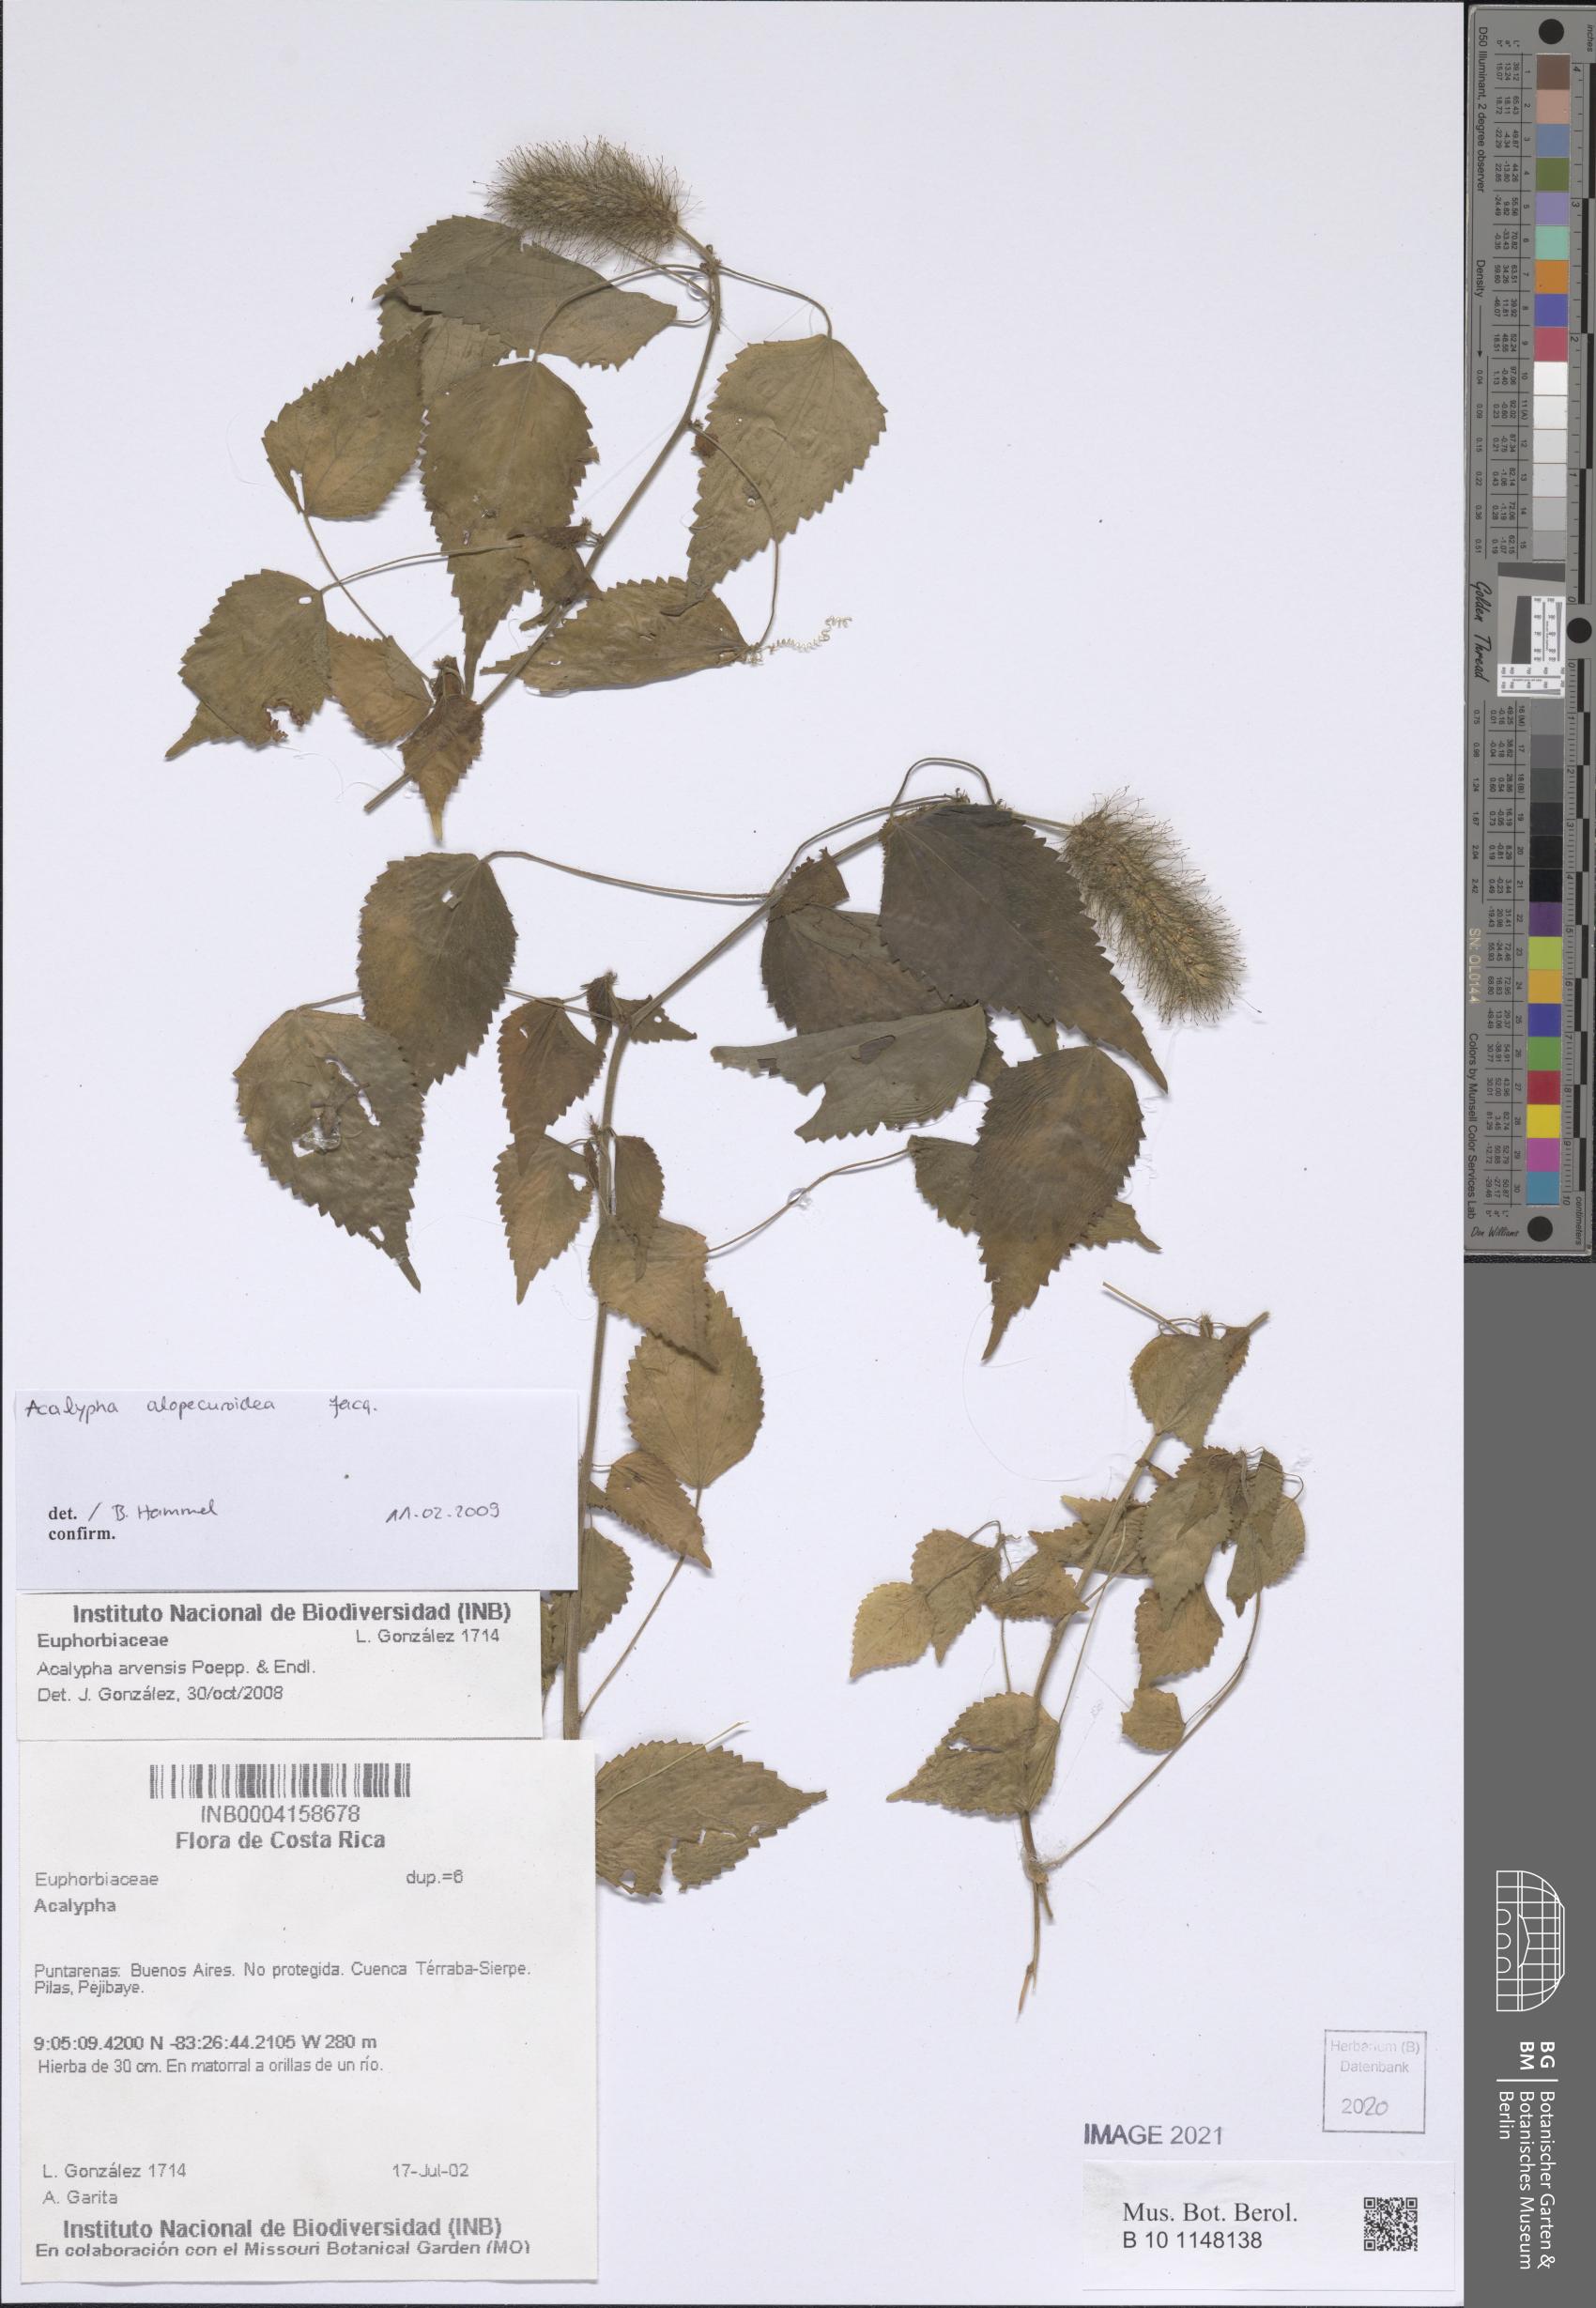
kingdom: Plantae
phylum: Tracheophyta
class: Magnoliopsida
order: Malpighiales
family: Euphorbiaceae
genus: Acalypha
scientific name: Acalypha alopecuroidea
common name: Foxtail copperleaf
